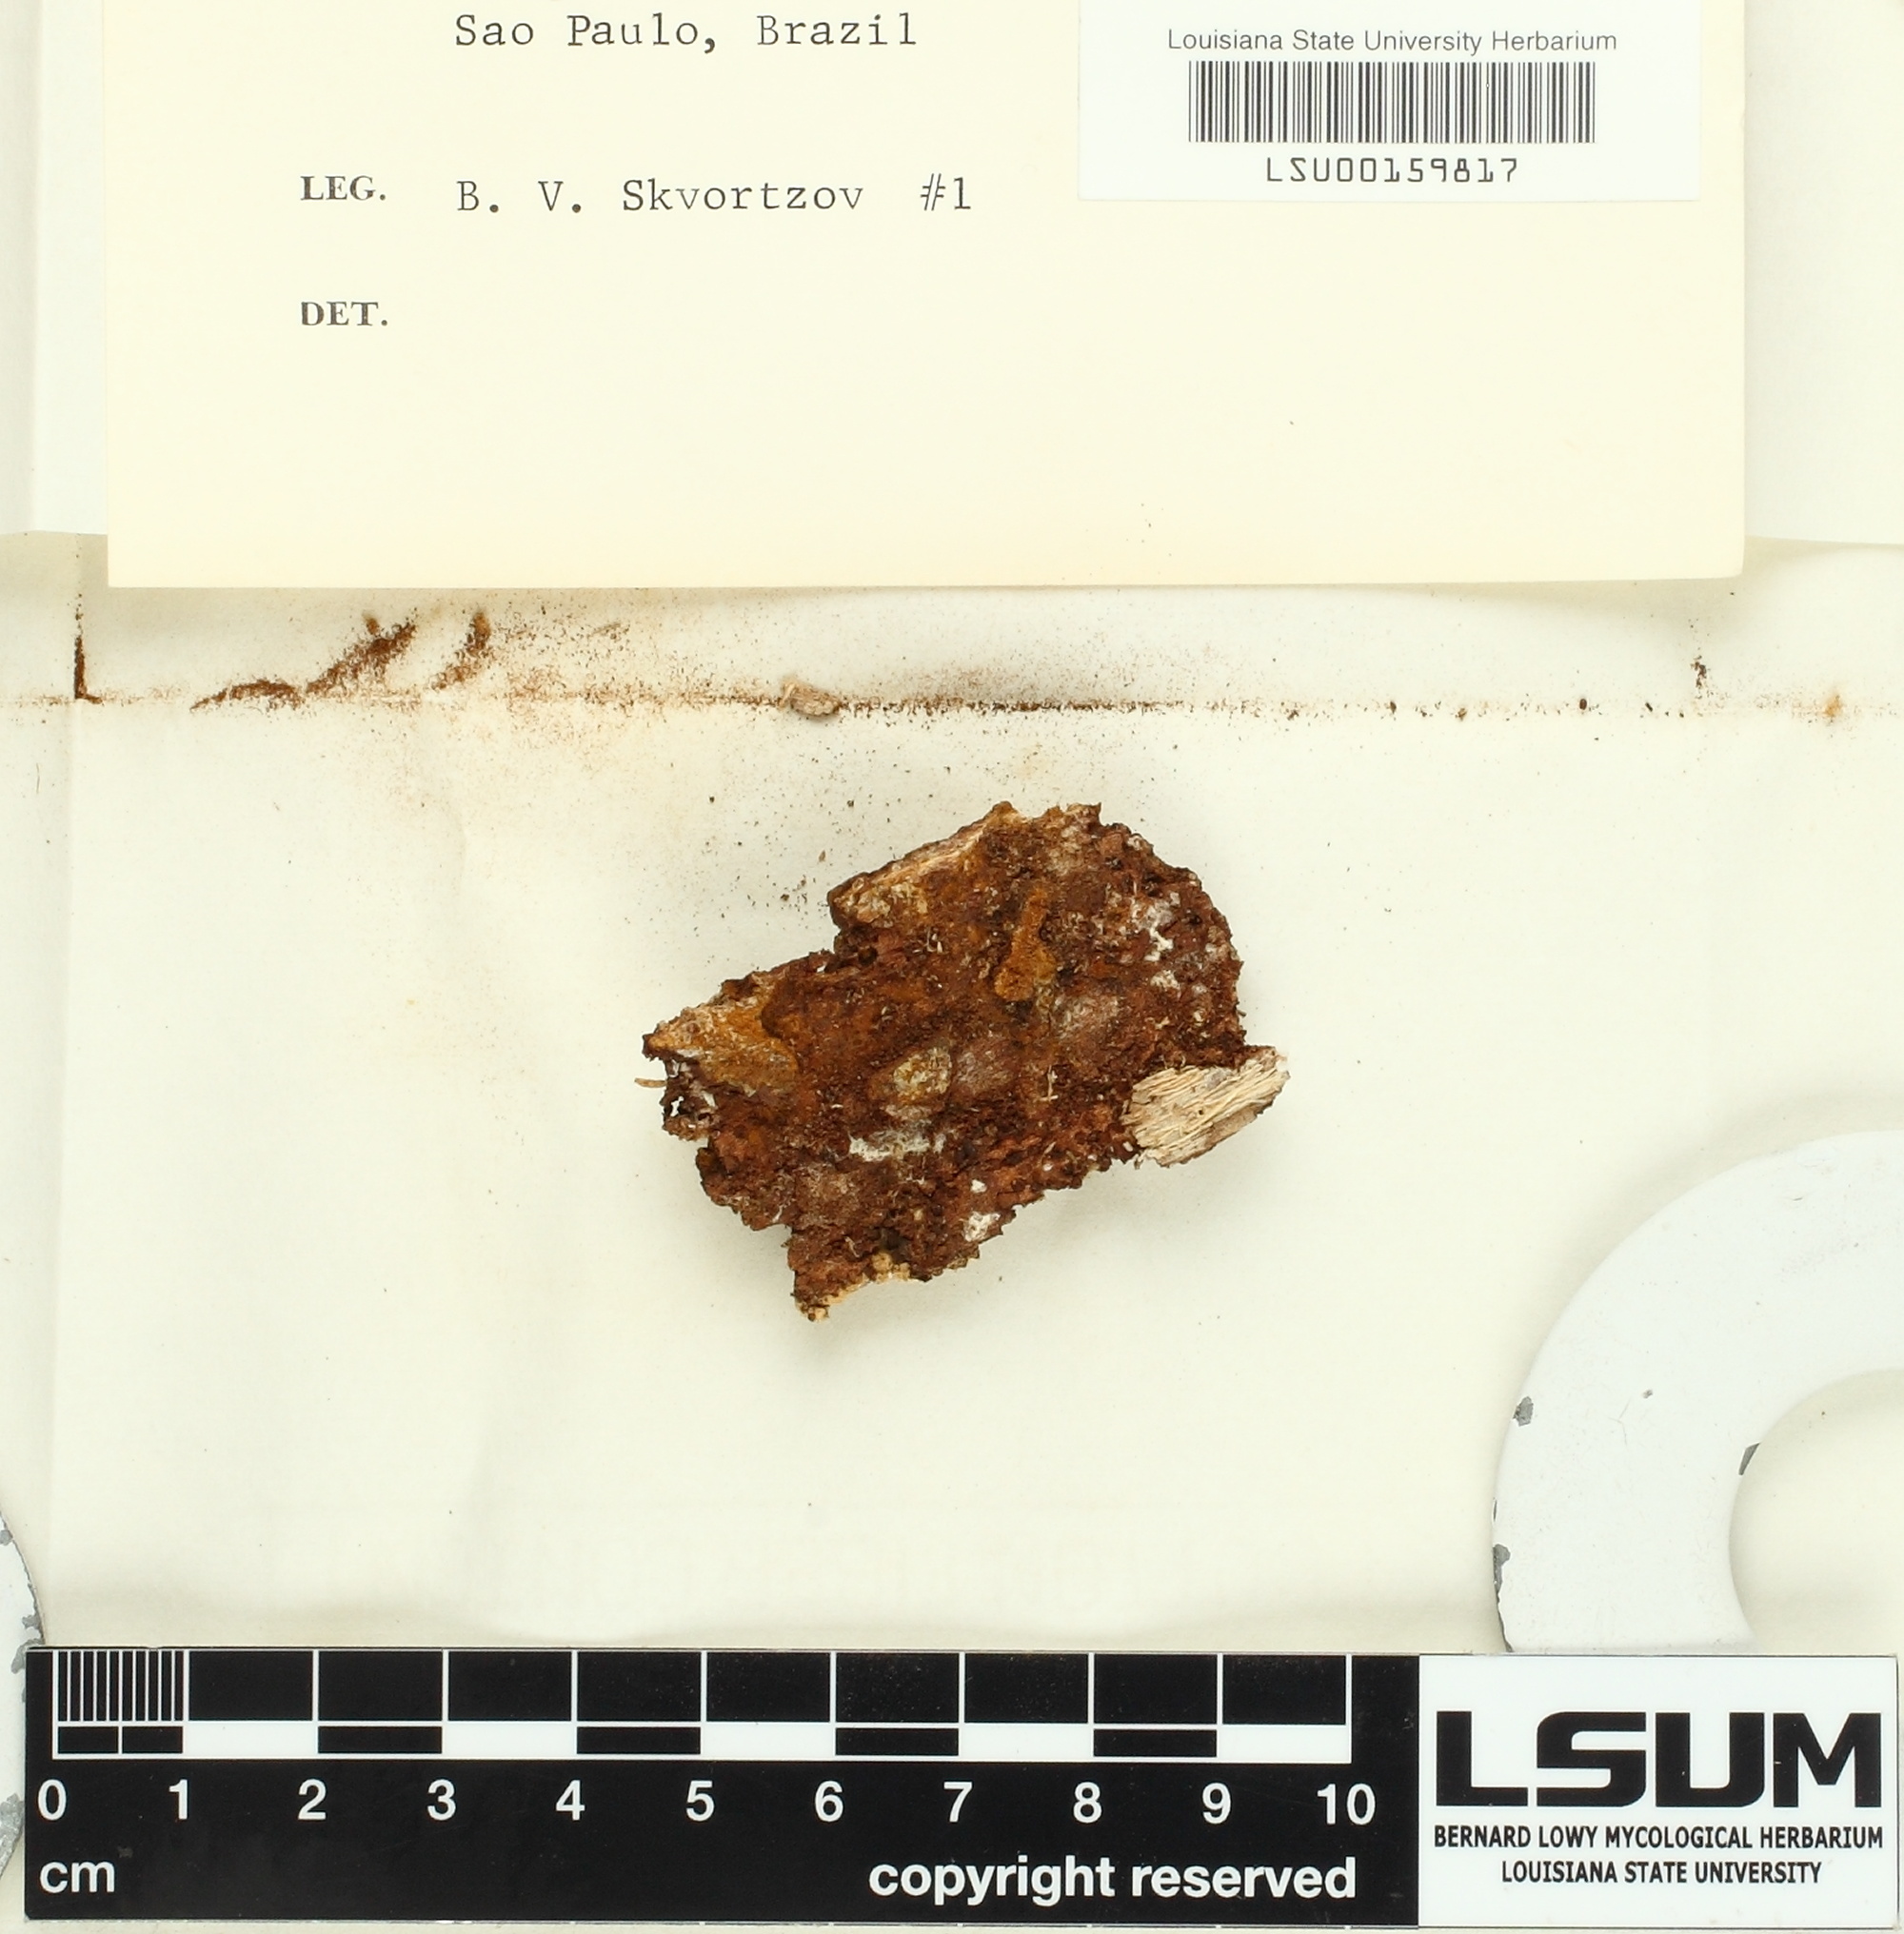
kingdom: Fungi
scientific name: Fungi
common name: Fungi
